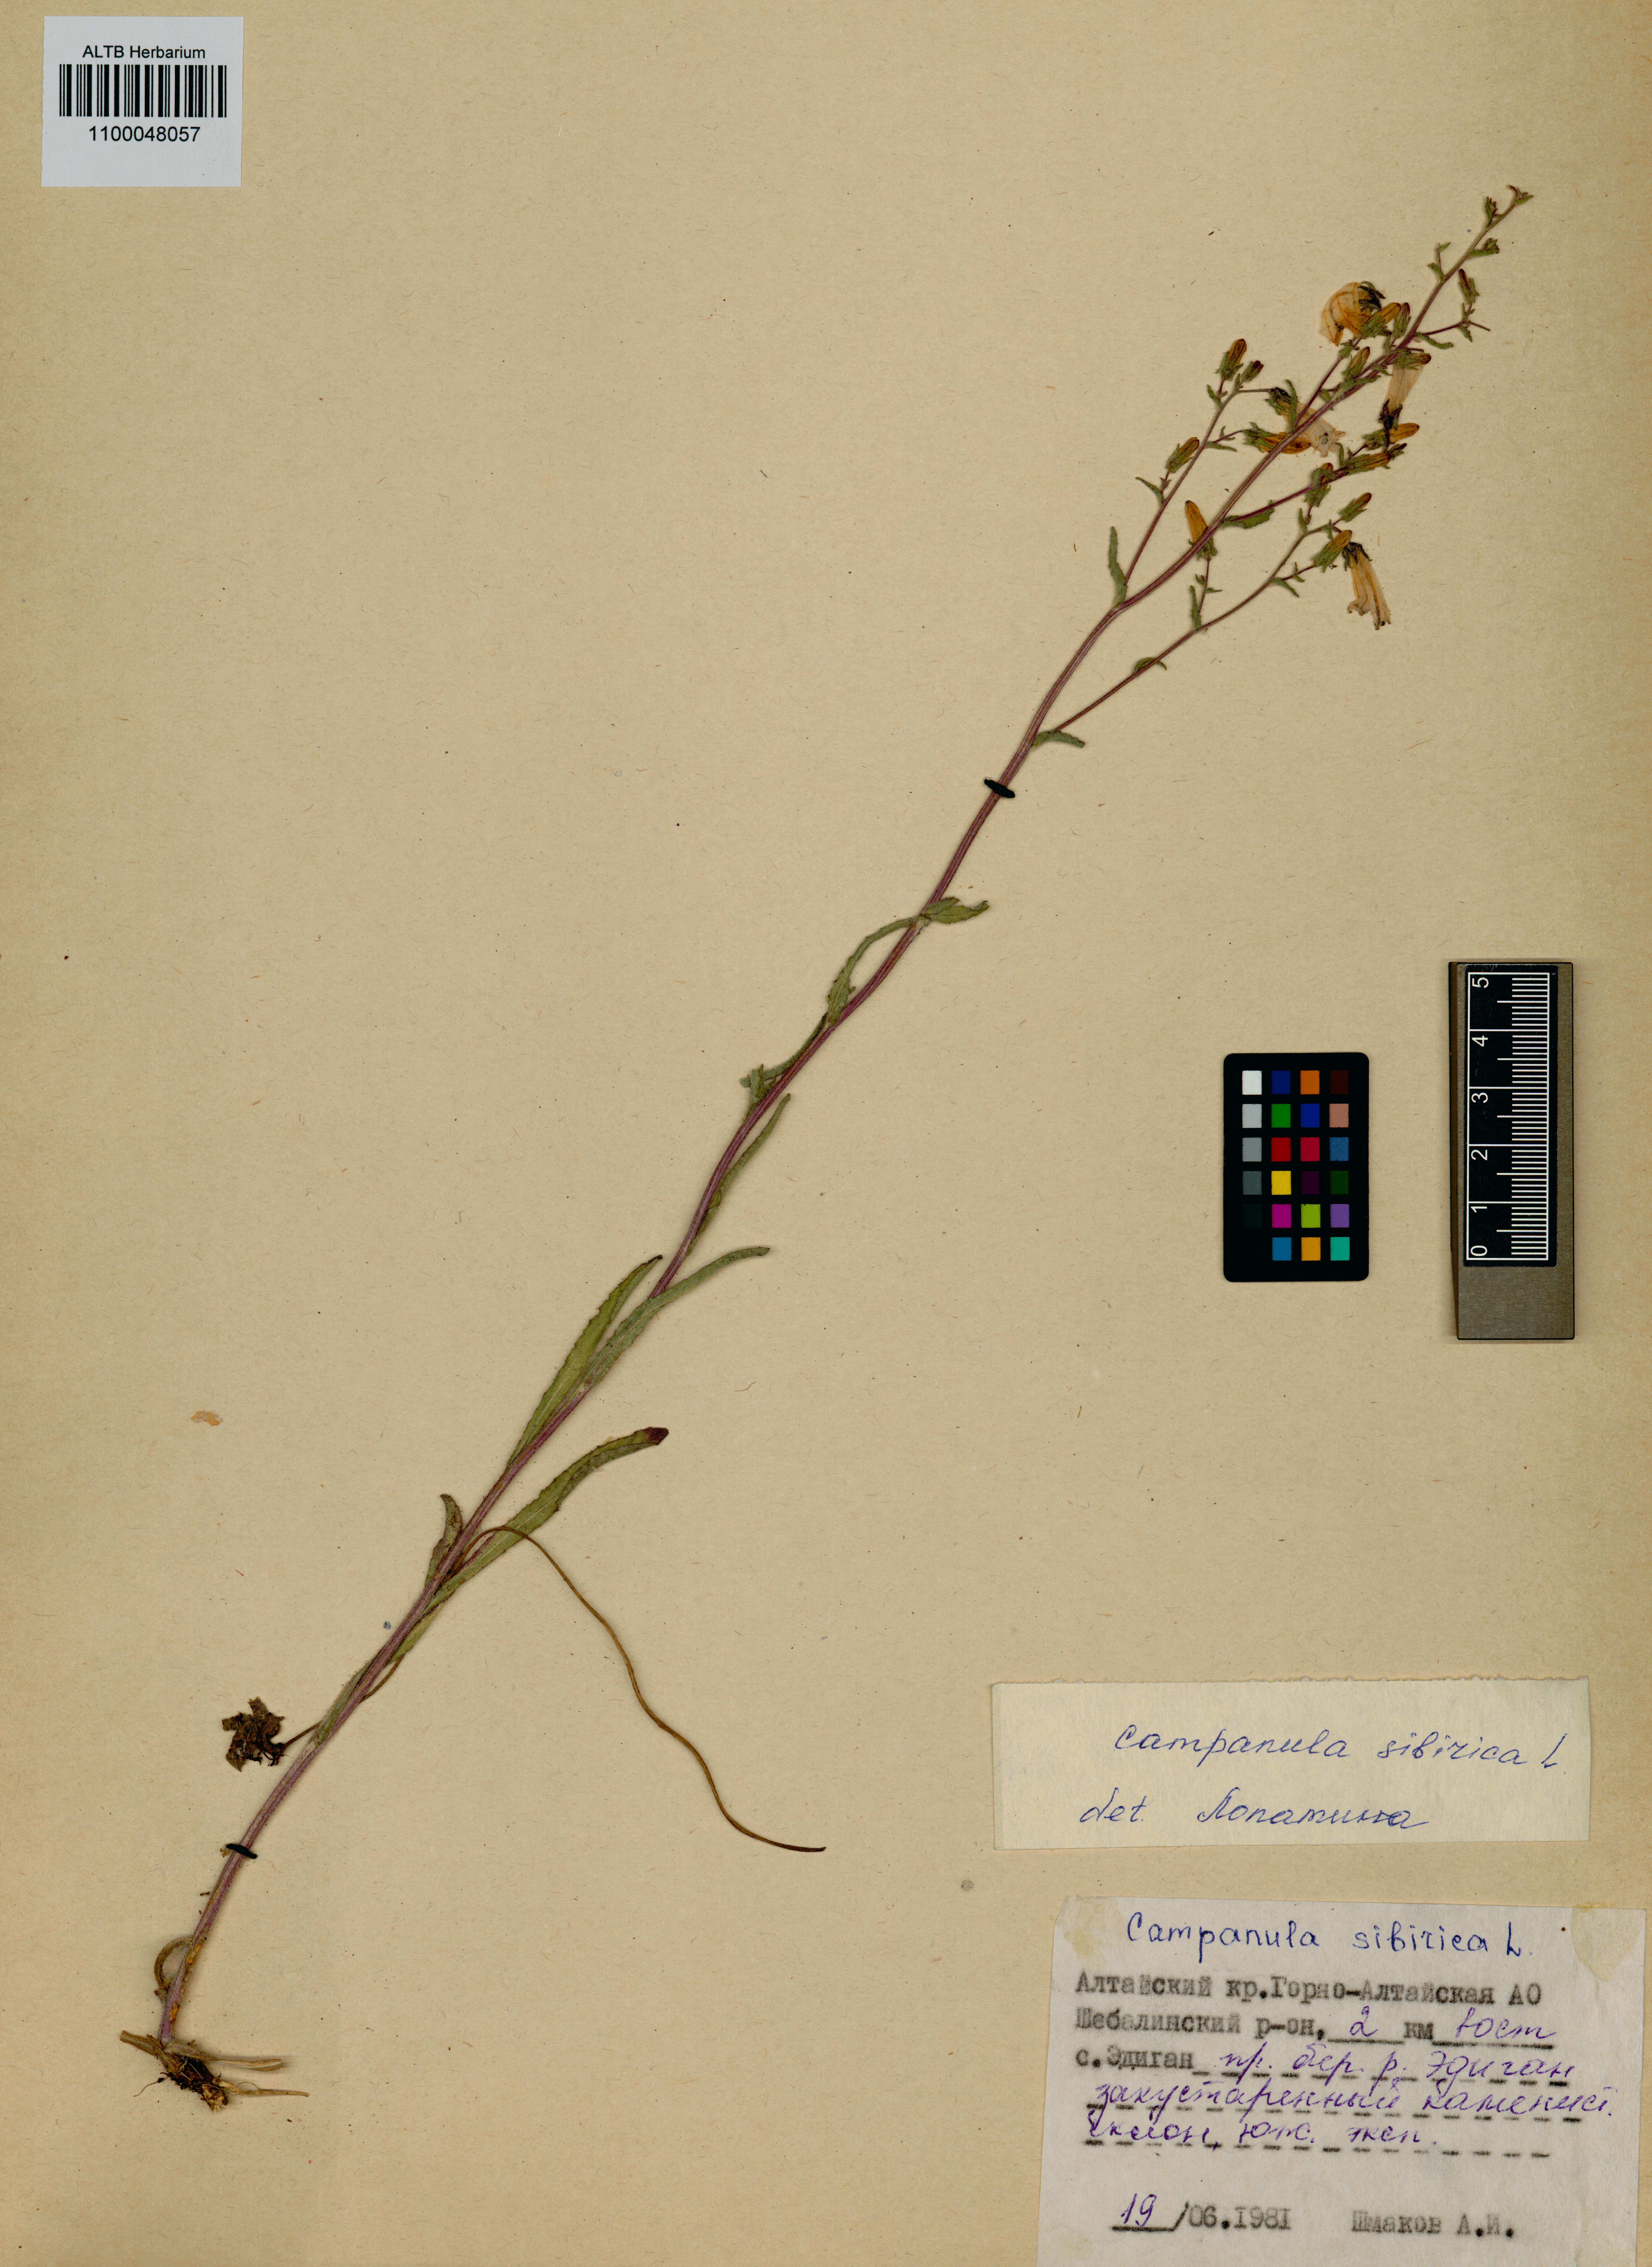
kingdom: Plantae
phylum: Tracheophyta
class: Magnoliopsida
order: Asterales
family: Campanulaceae
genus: Campanula
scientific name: Campanula sibirica
